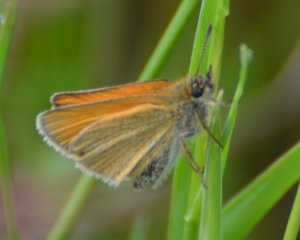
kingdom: Animalia
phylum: Arthropoda
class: Insecta
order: Lepidoptera
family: Hesperiidae
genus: Thymelicus
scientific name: Thymelicus lineola
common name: European Skipper
